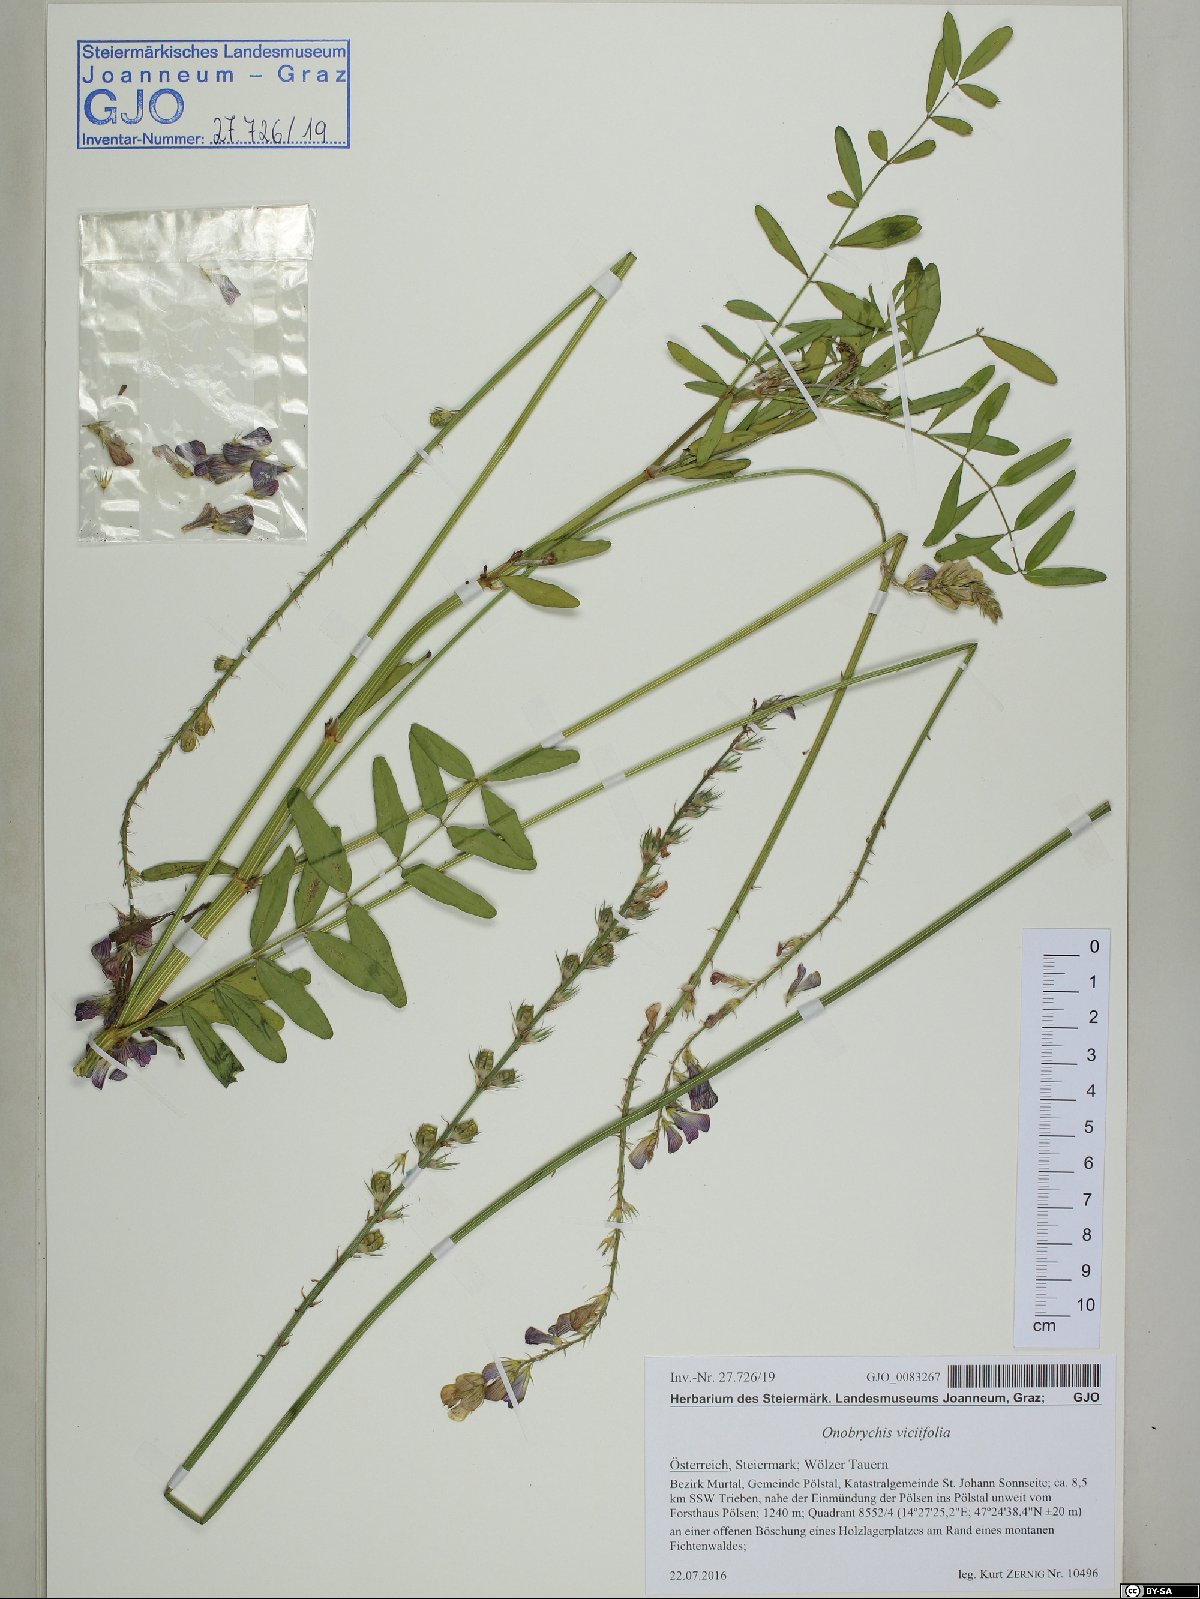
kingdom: Plantae
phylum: Tracheophyta
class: Magnoliopsida
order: Fabales
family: Fabaceae
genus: Onobrychis
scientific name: Onobrychis viciifolia
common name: Sainfoin
